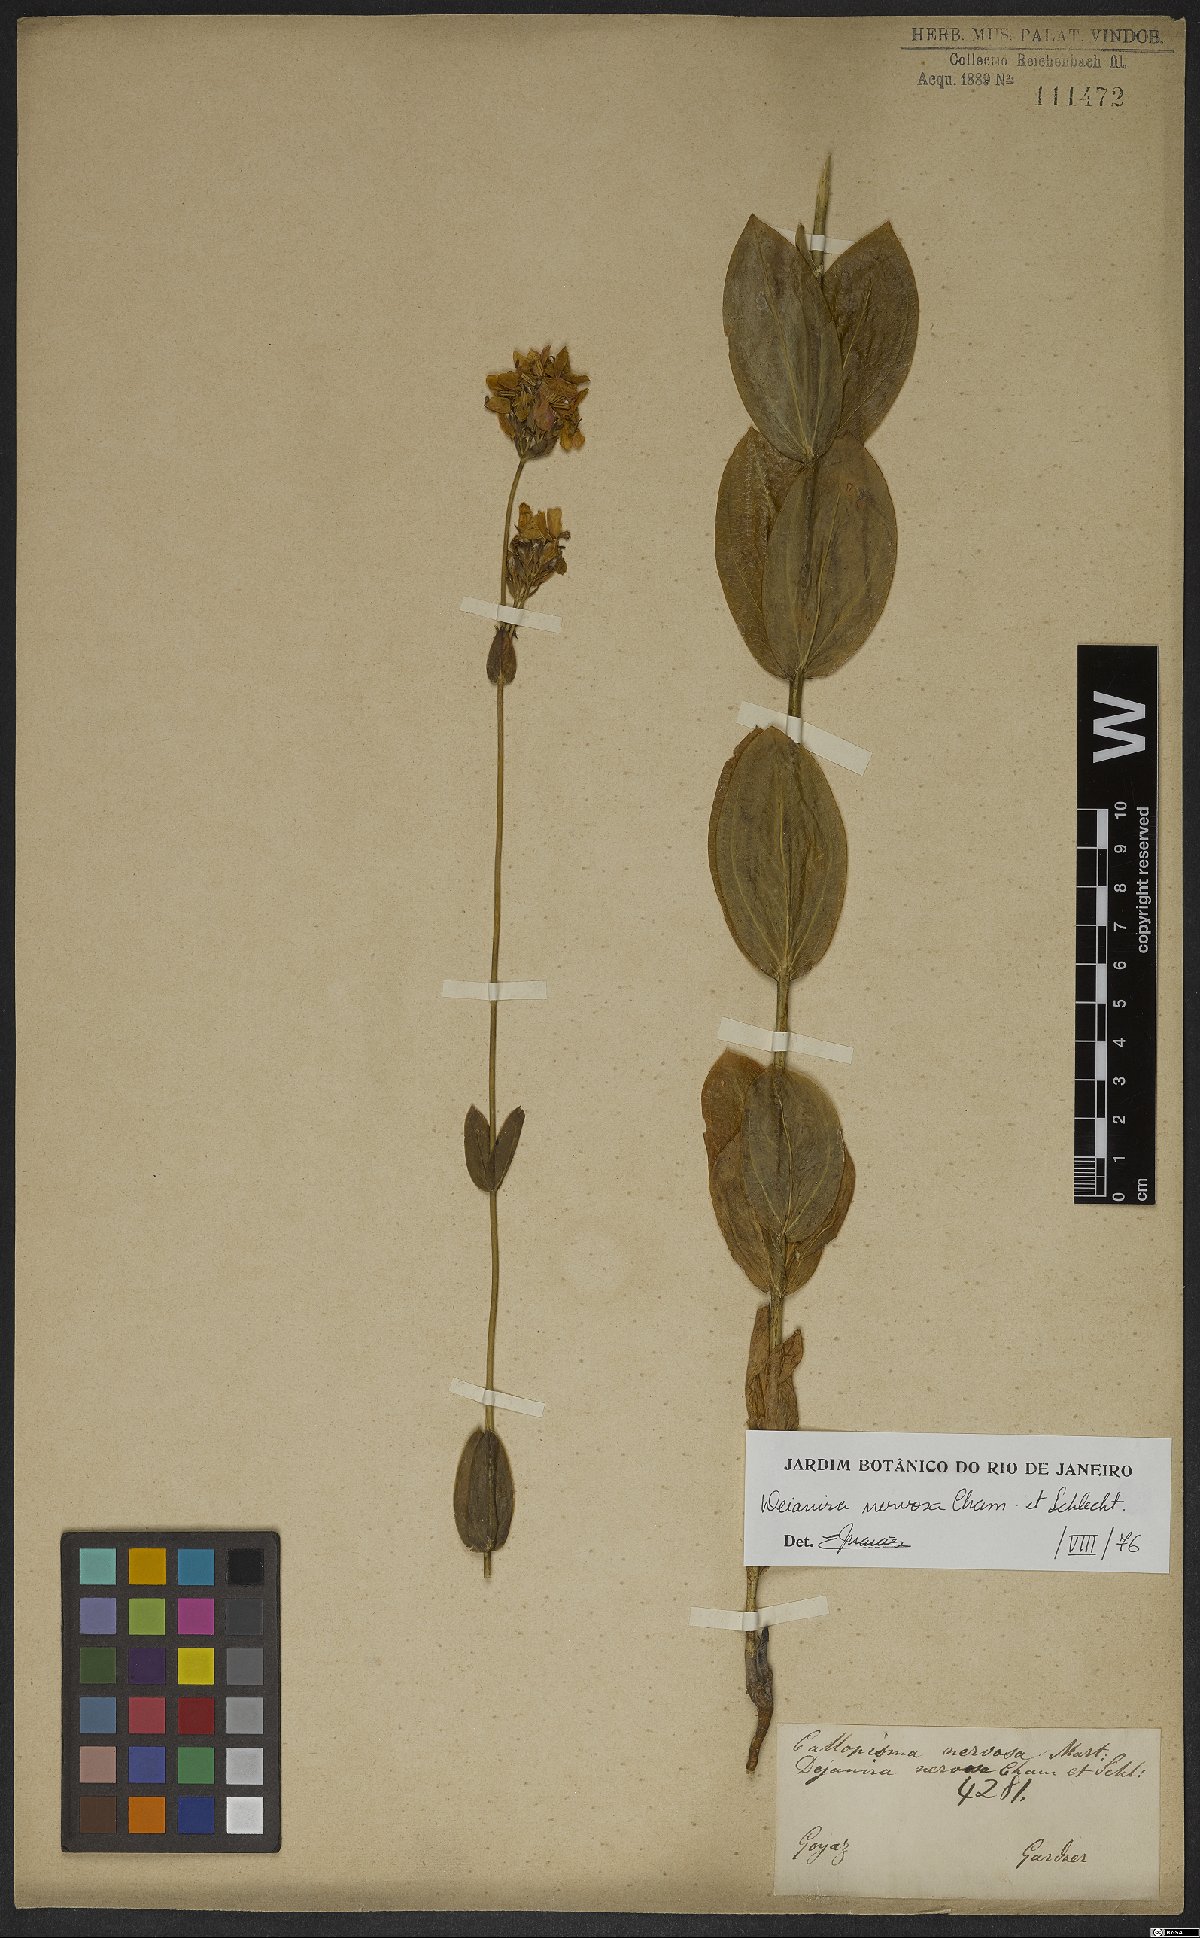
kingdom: Plantae
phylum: Tracheophyta
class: Magnoliopsida
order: Gentianales
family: Gentianaceae
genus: Deianira
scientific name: Deianira nervosa
